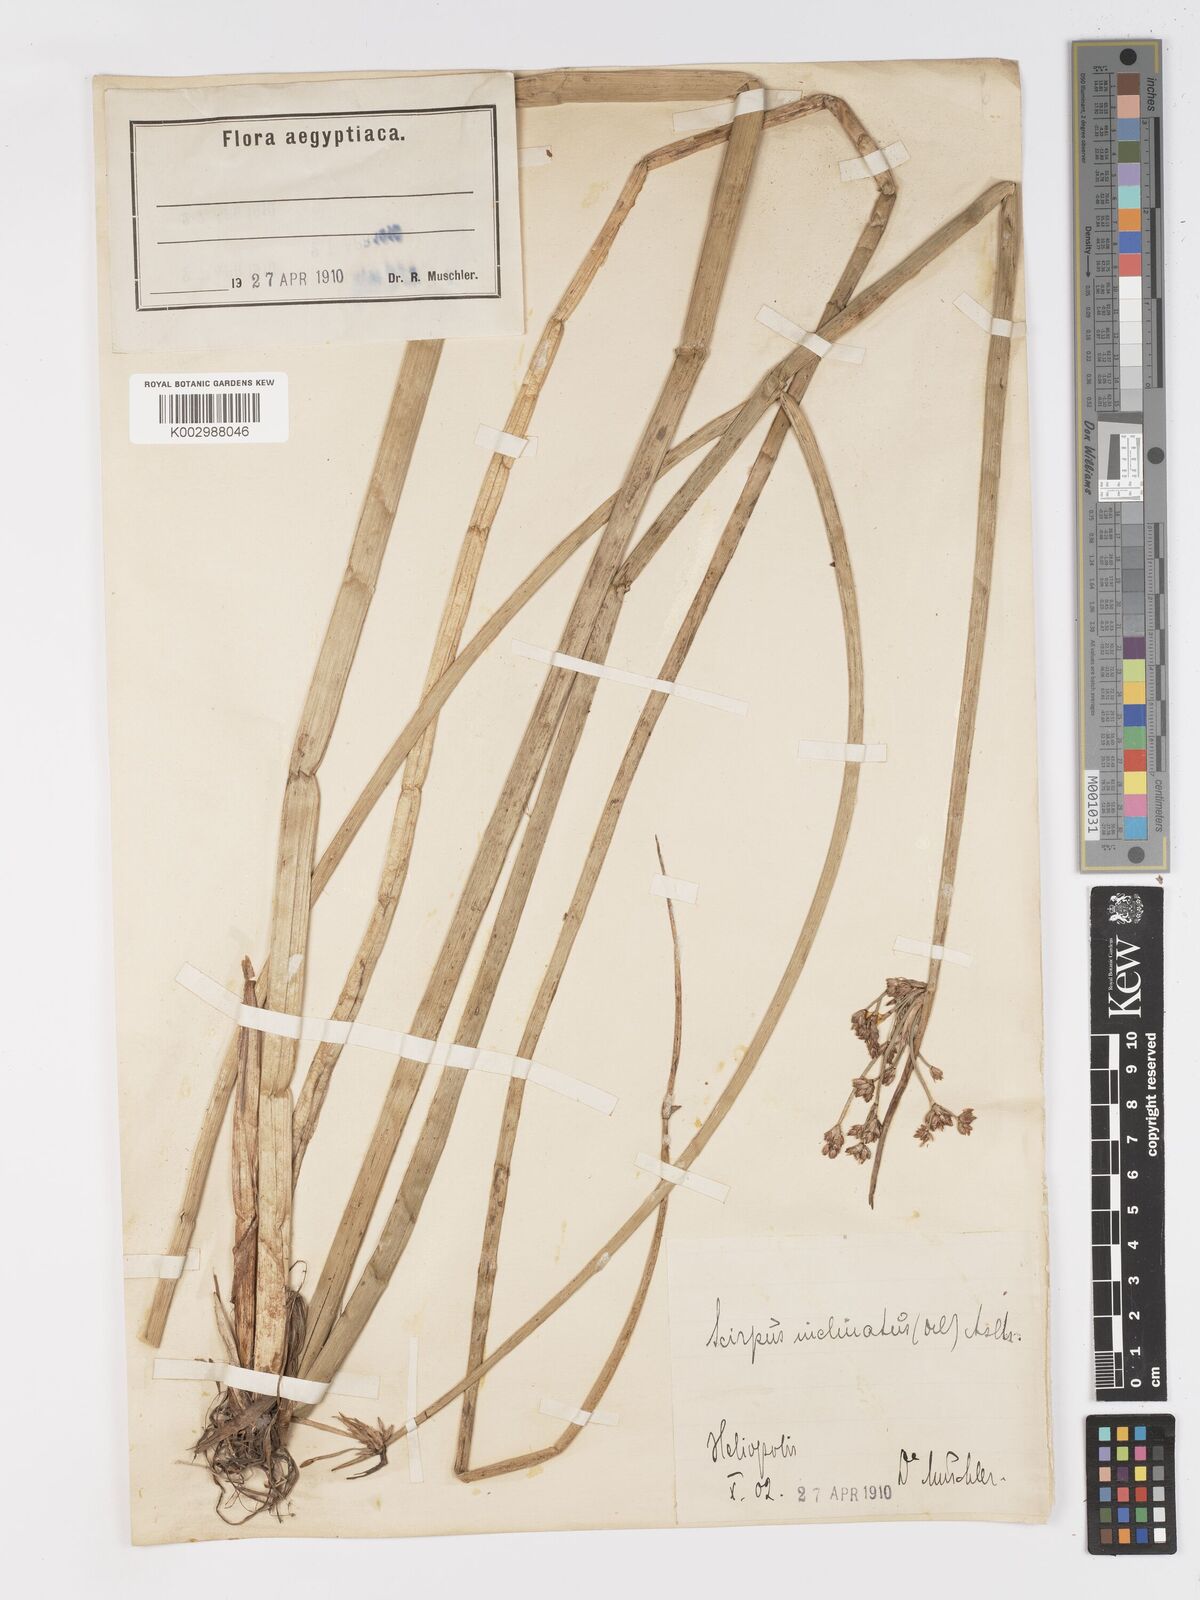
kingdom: Plantae
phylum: Tracheophyta
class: Liliopsida
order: Poales
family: Cyperaceae
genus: Schoenoplectiella
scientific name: Schoenoplectiella corymbosa
